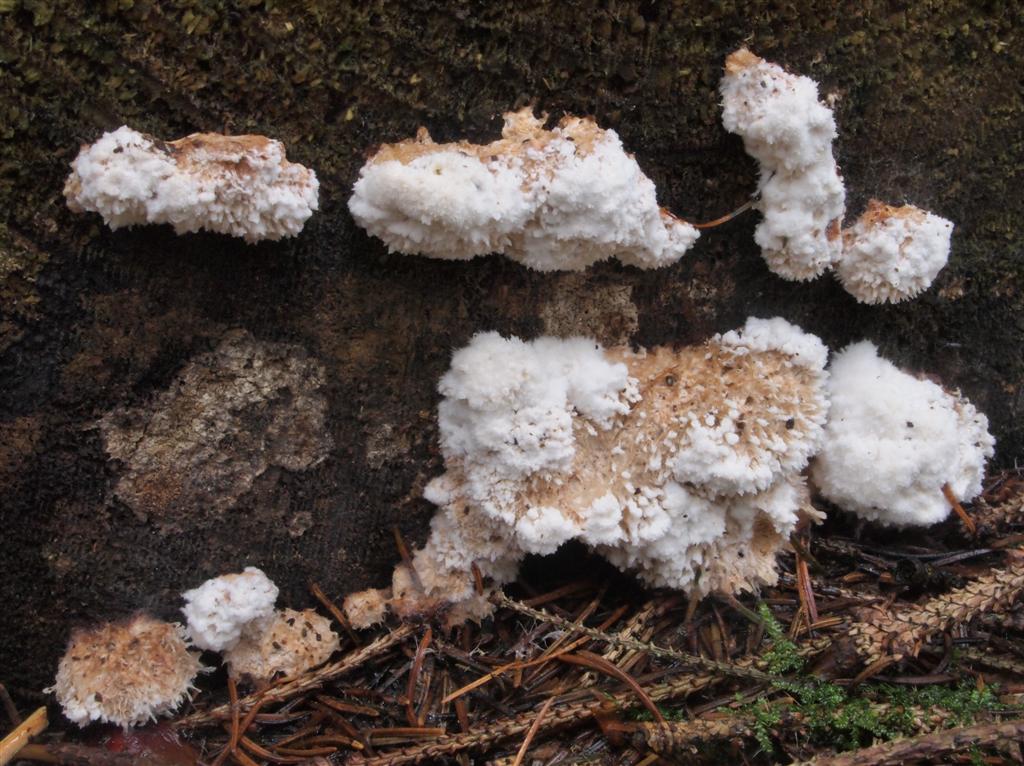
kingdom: Fungi
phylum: Basidiomycota
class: Agaricomycetes
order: Polyporales
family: Dacryobolaceae
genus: Postia
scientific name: Postia ptychogaster
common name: støvende kødporesvamp
